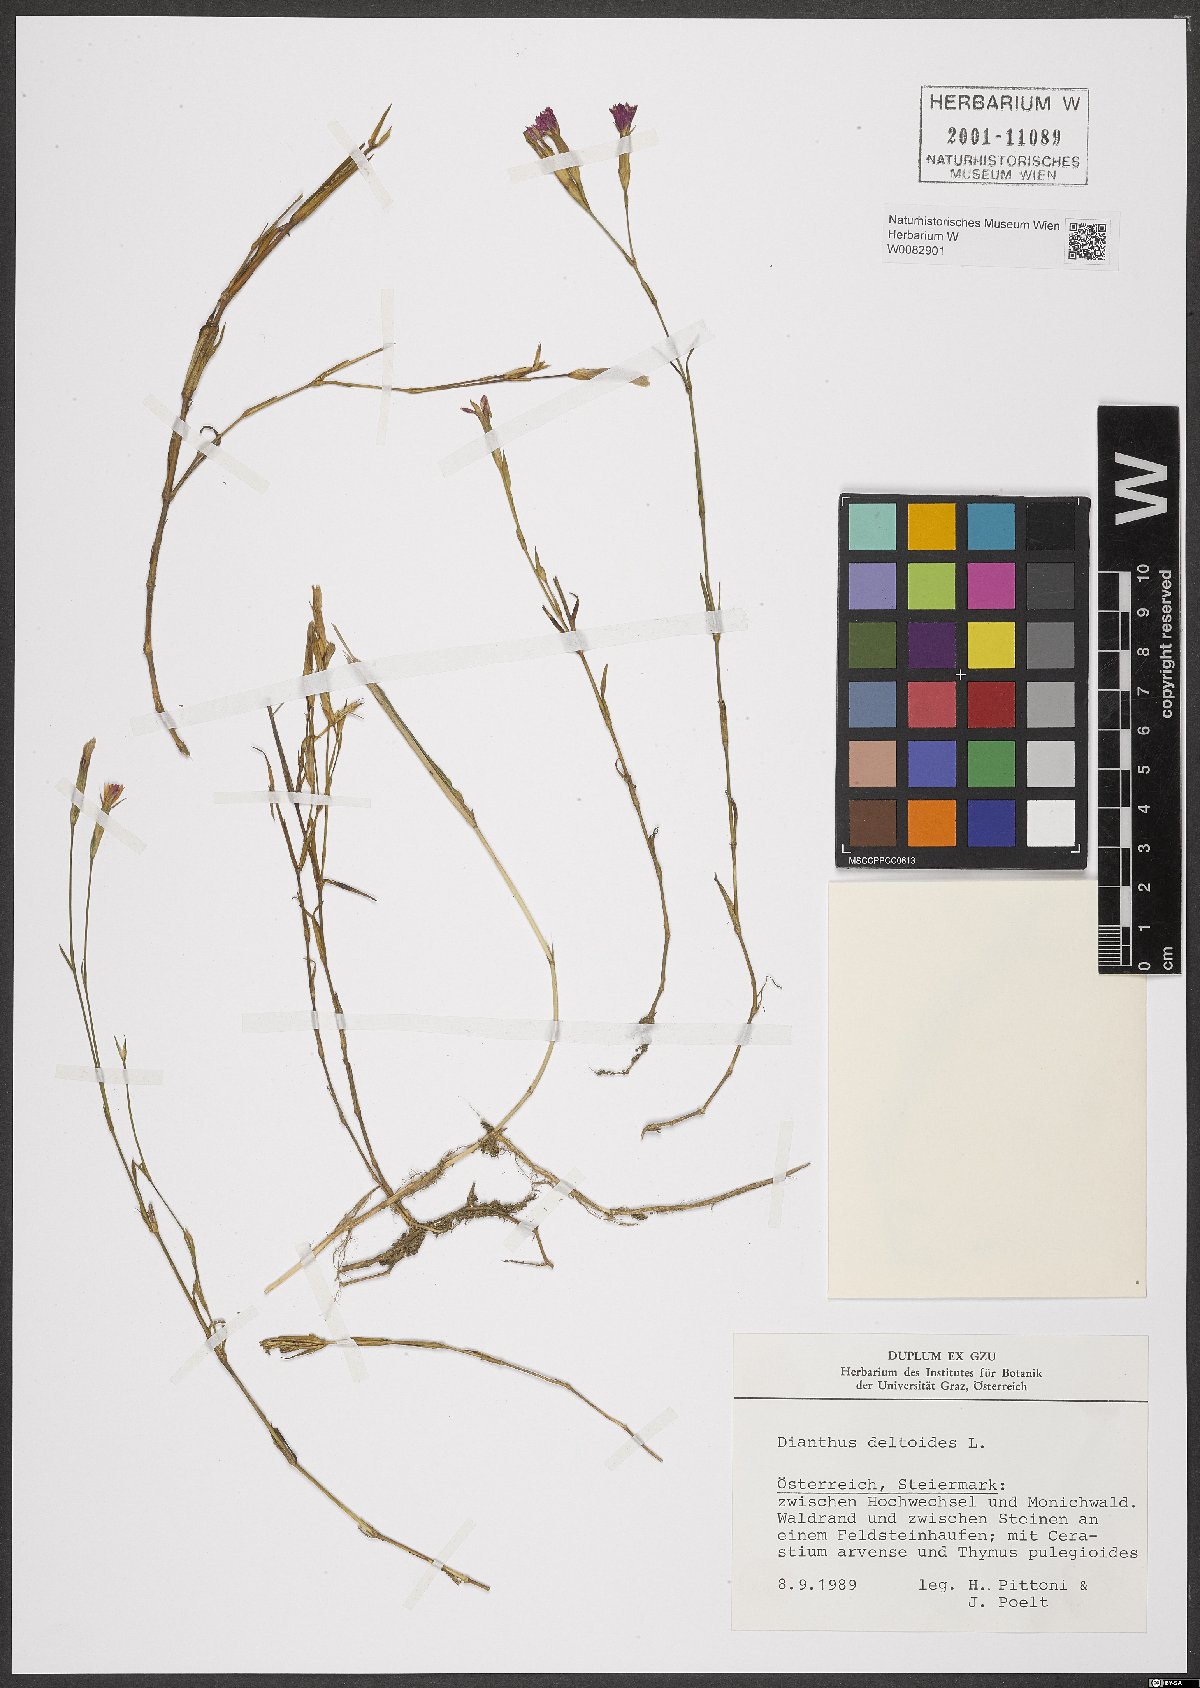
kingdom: Plantae
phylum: Tracheophyta
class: Magnoliopsida
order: Caryophyllales
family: Caryophyllaceae
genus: Dianthus
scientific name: Dianthus deltoides
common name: Maiden pink
